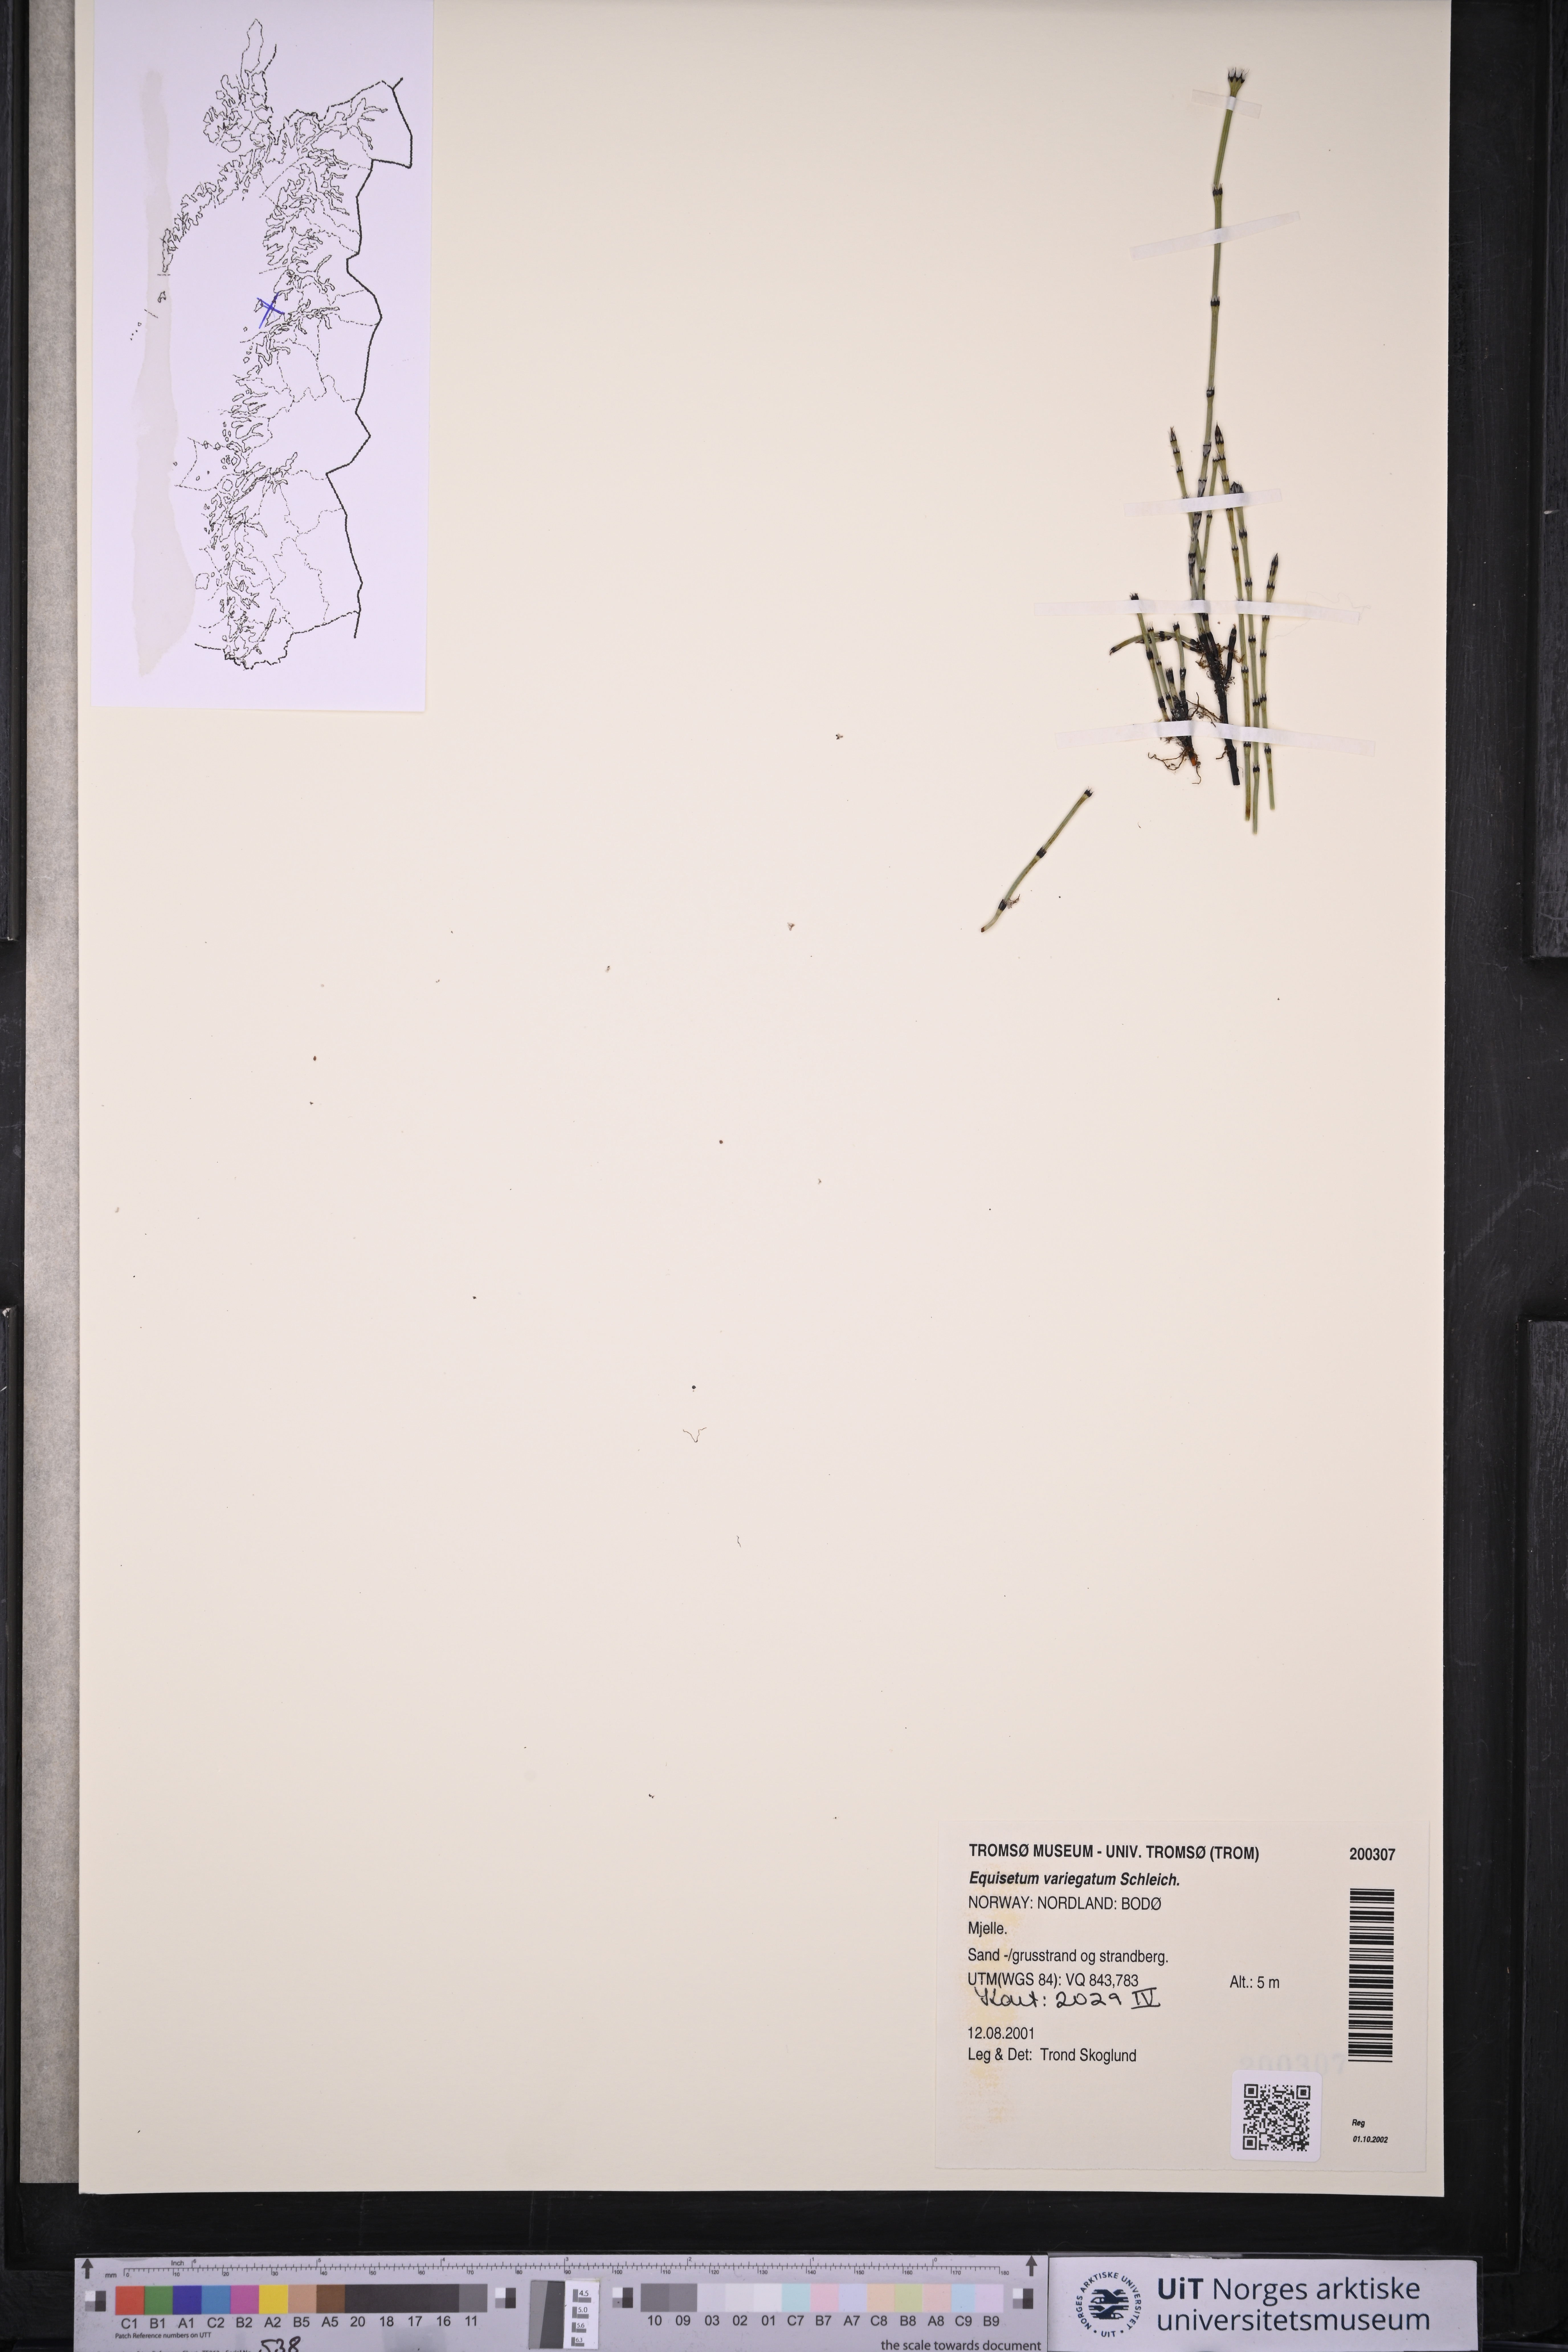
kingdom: Plantae
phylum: Tracheophyta
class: Polypodiopsida
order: Equisetales
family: Equisetaceae
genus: Equisetum
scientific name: Equisetum variegatum
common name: Variegated horsetail
